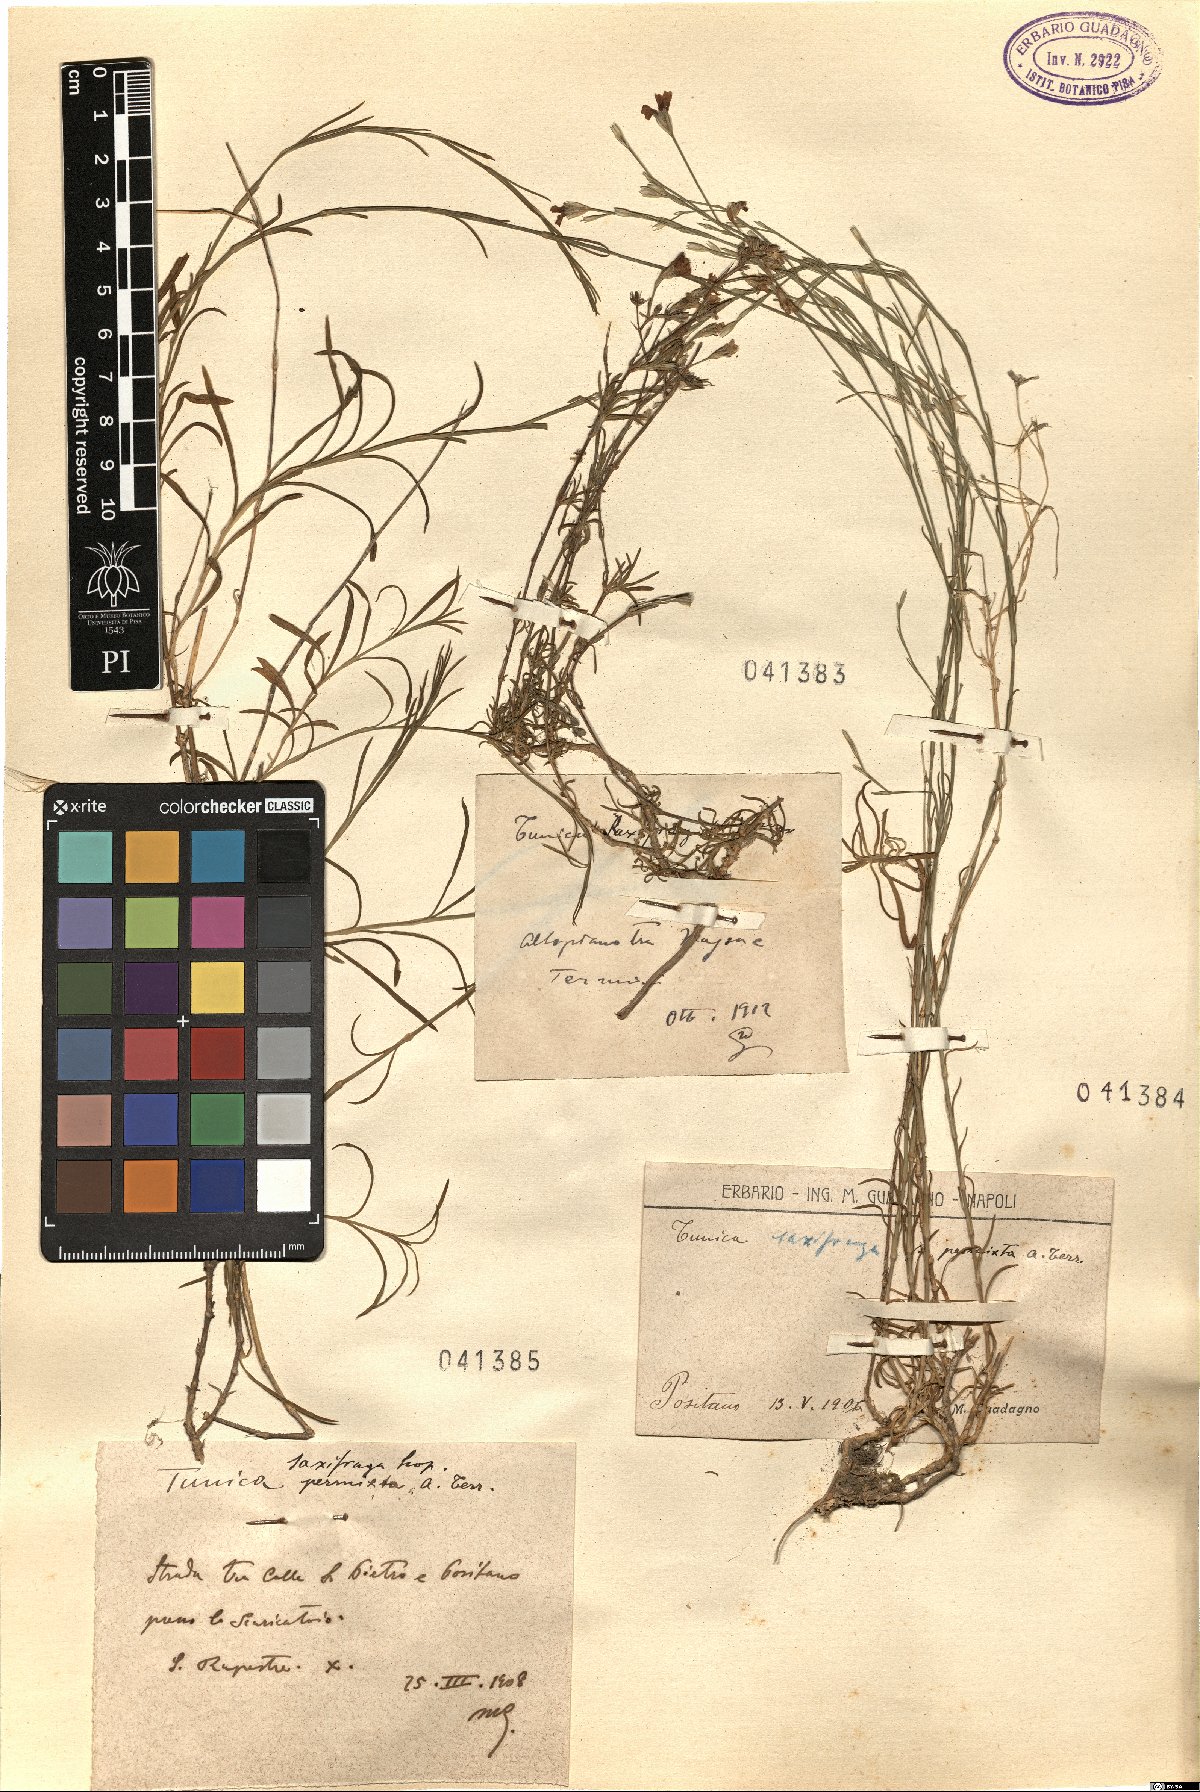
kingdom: Plantae
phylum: Tracheophyta
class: Magnoliopsida
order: Caryophyllales
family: Caryophyllaceae
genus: Petrorhagia
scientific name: Petrorhagia saxifraga
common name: Tunicflower
